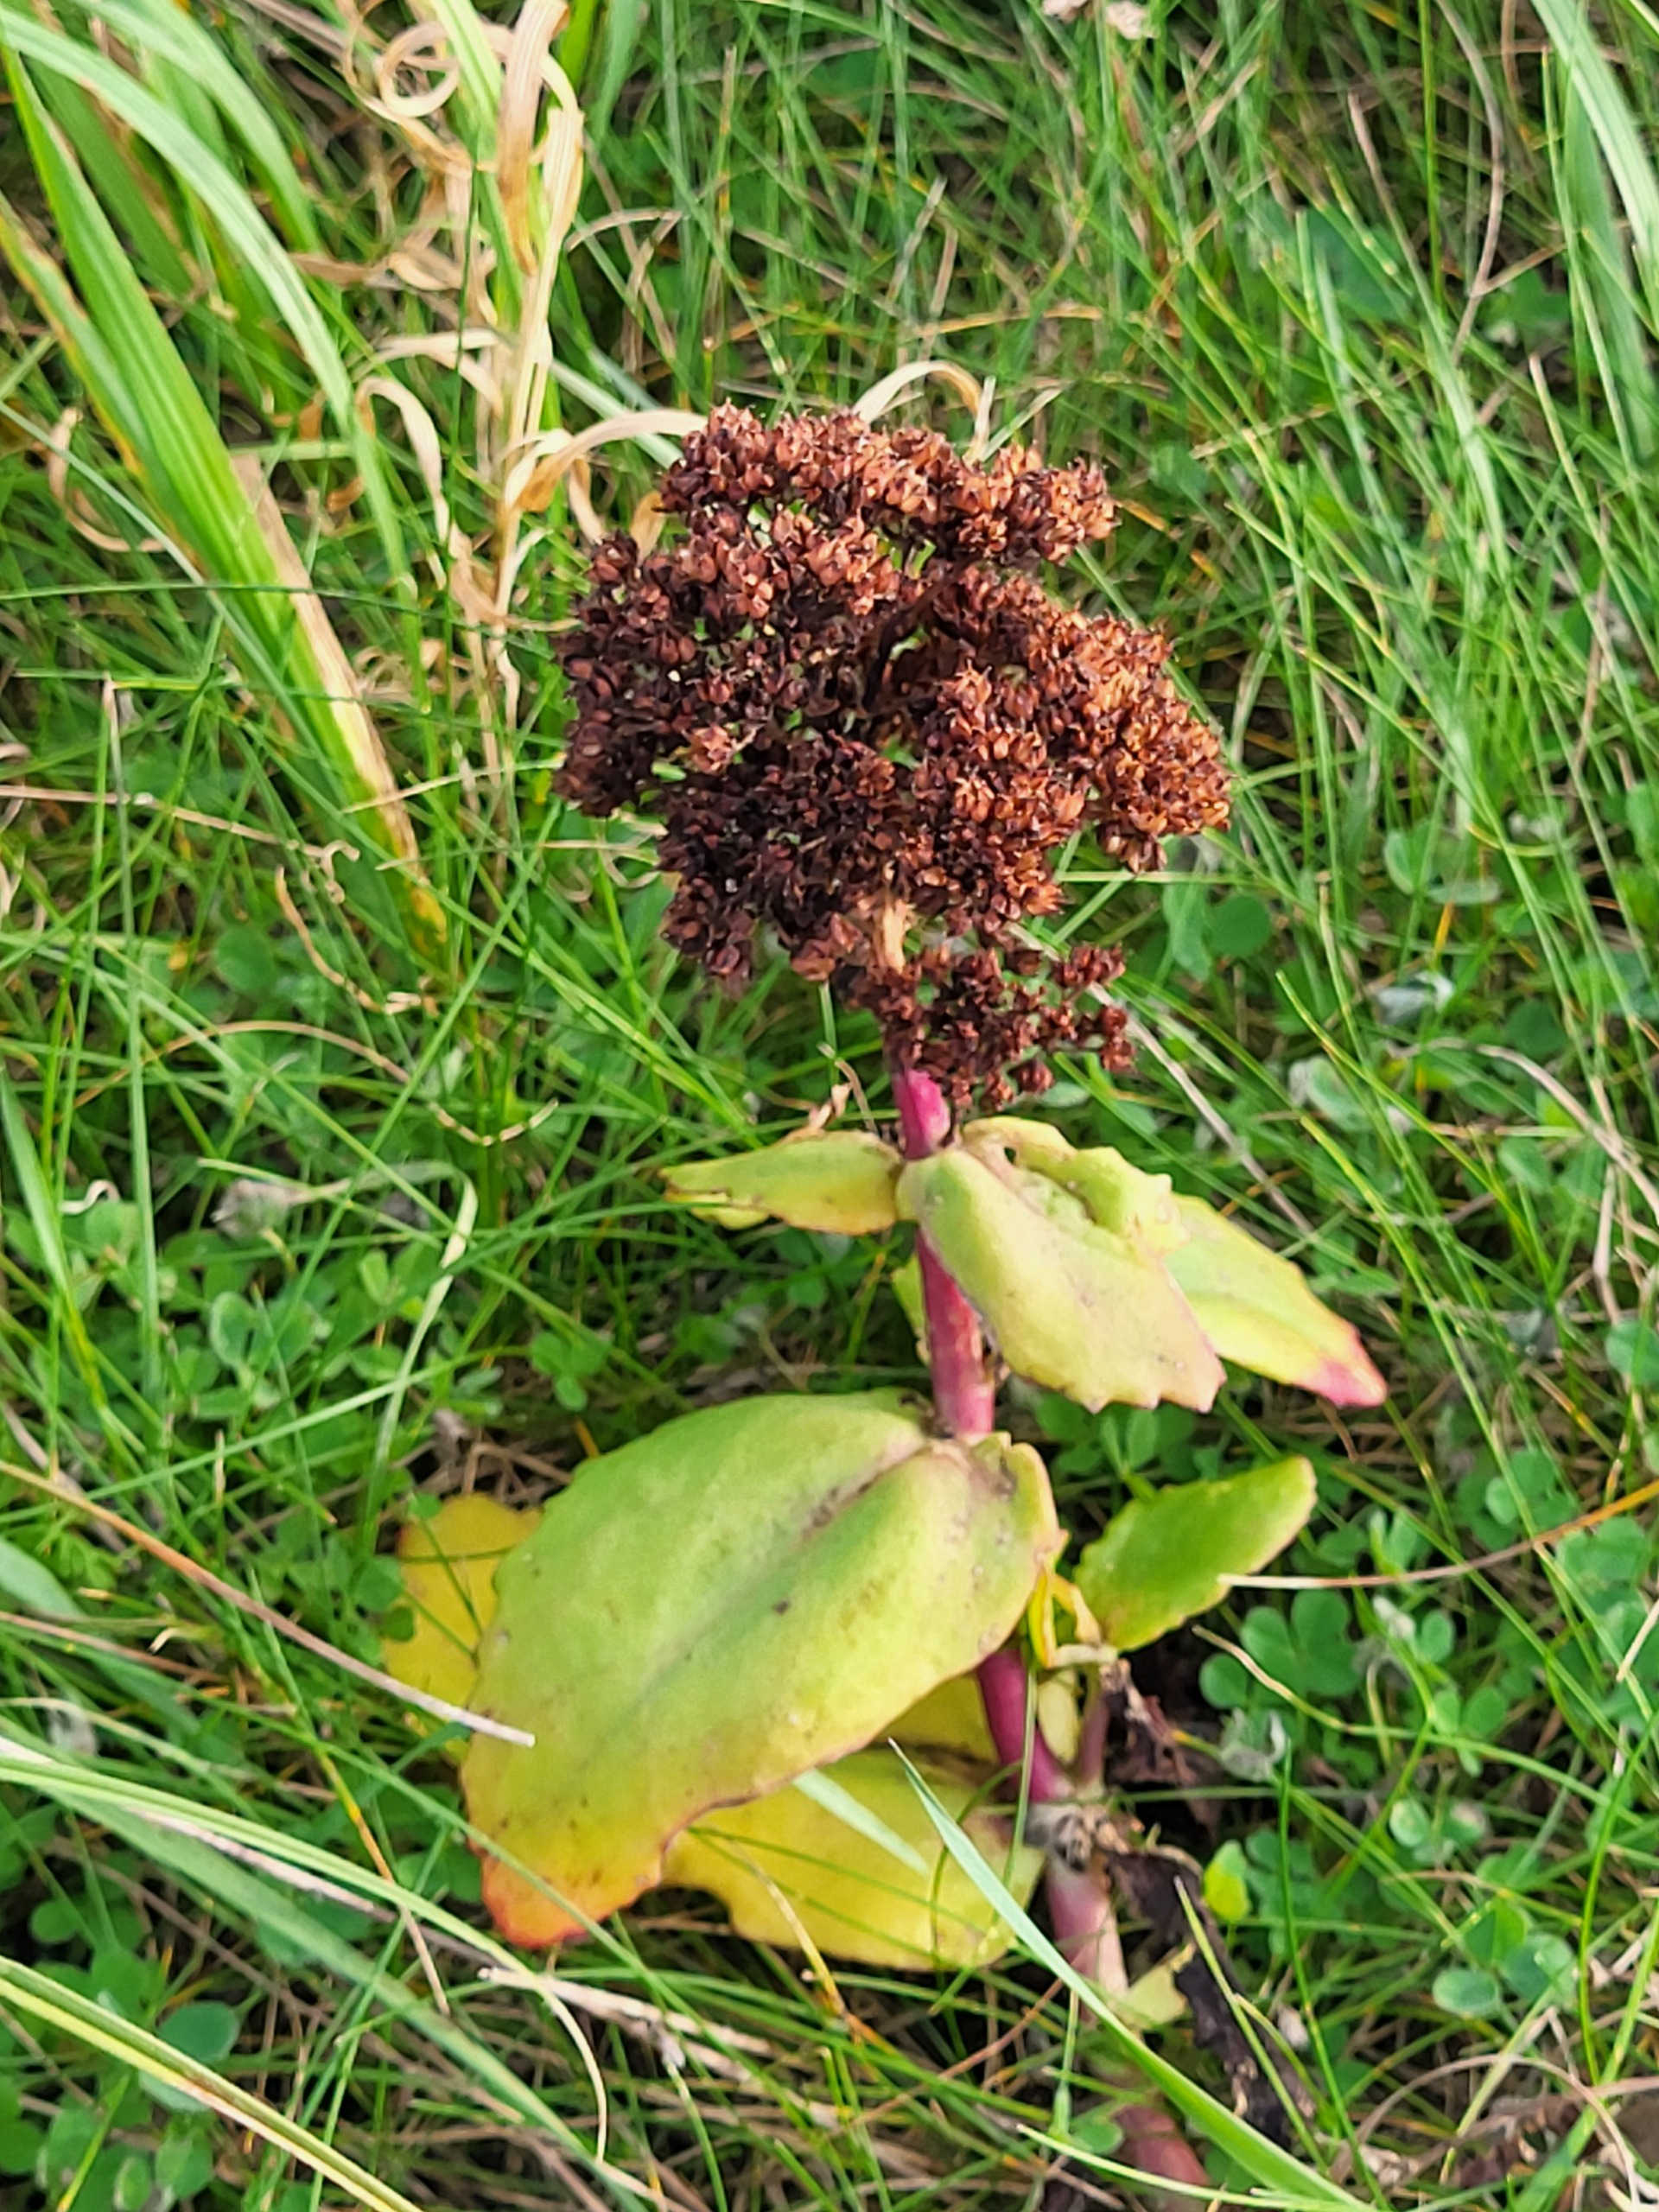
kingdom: Plantae
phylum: Tracheophyta
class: Magnoliopsida
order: Saxifragales
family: Crassulaceae
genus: Hylotelephium
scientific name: Hylotelephium telephium
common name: Sankthansurt
